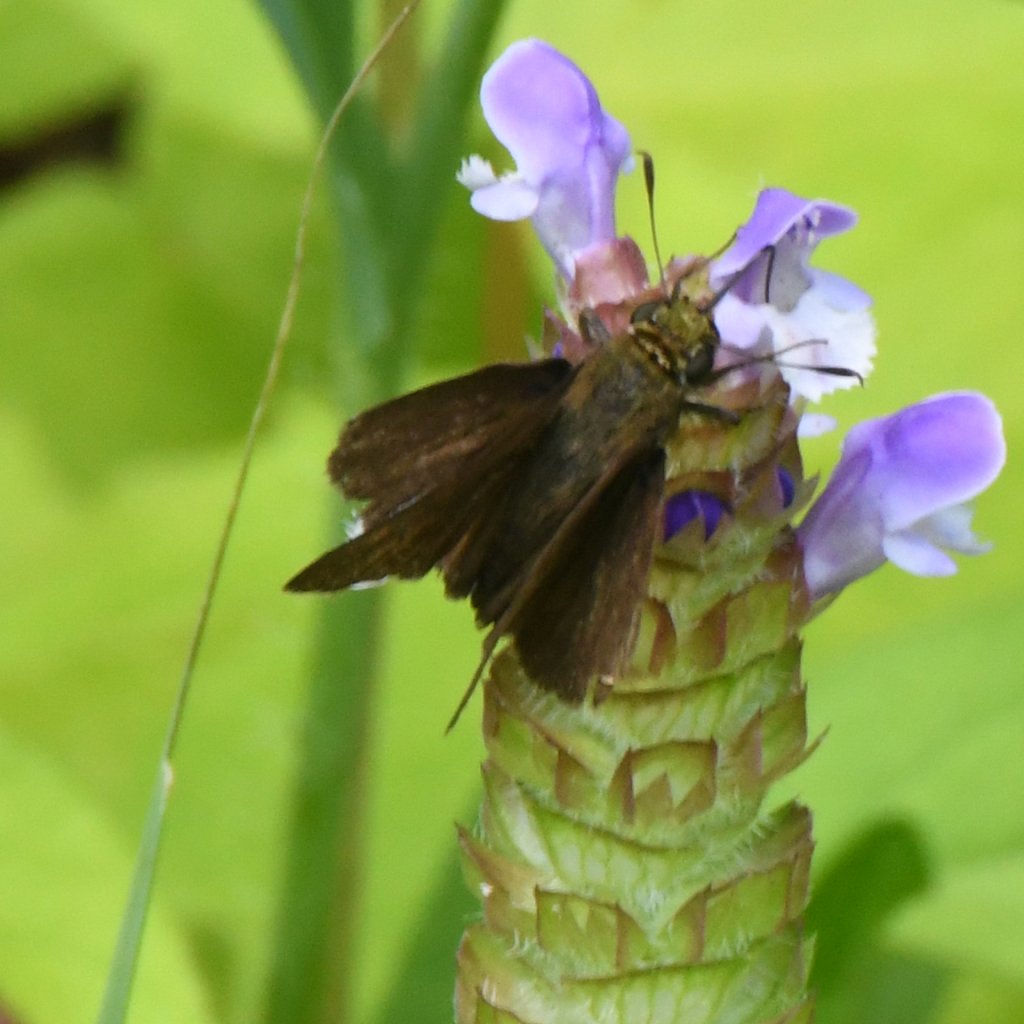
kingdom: Animalia
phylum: Arthropoda
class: Insecta
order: Lepidoptera
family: Hesperiidae
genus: Euphyes
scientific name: Euphyes vestris
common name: Dun Skipper
